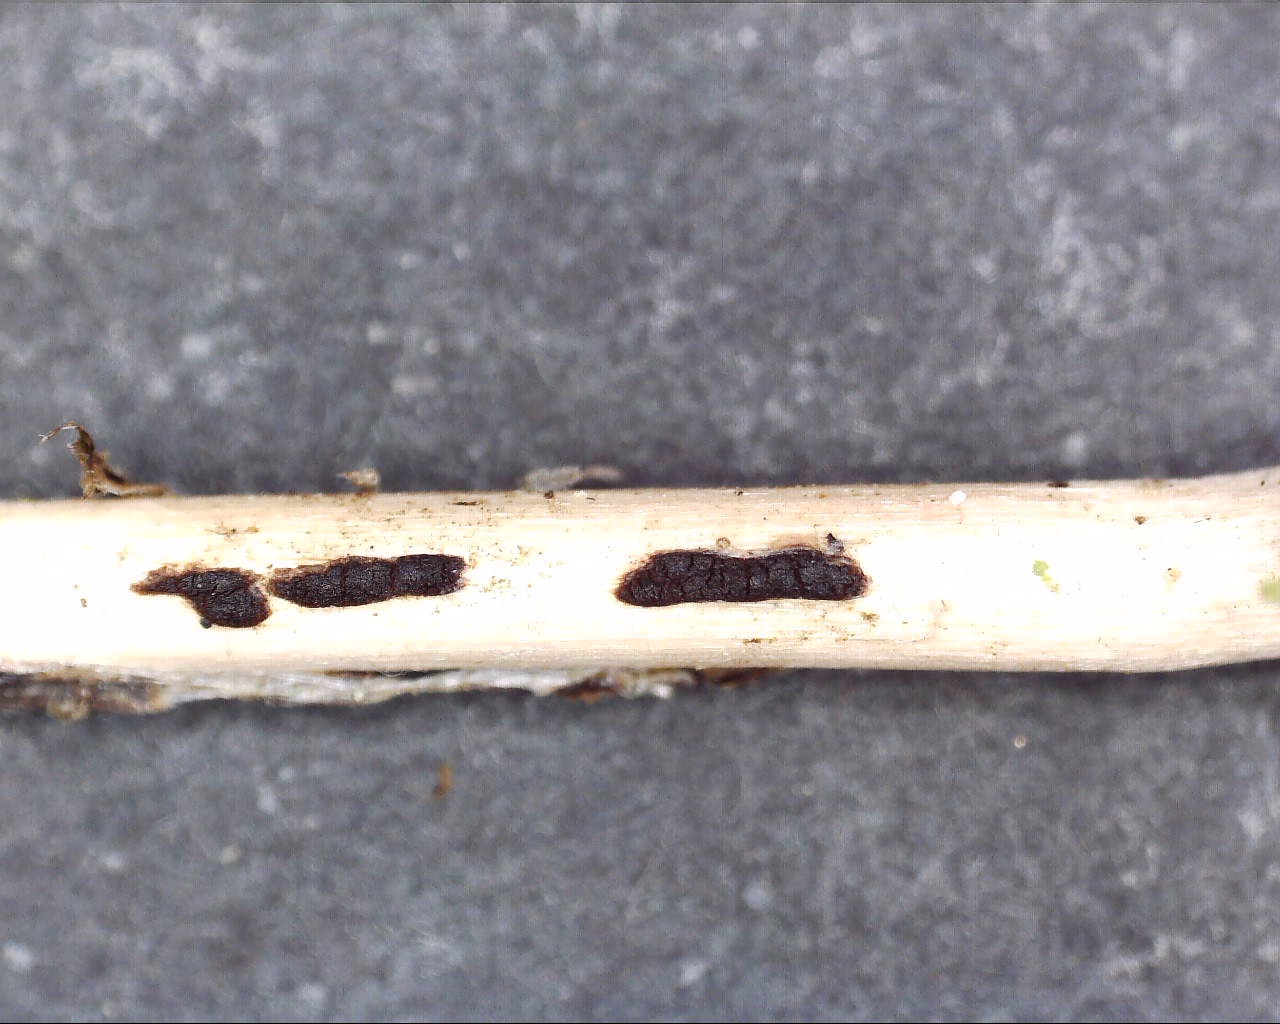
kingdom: Fungi
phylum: Basidiomycota
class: Pucciniomycetes
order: Pucciniales
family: Pucciniaceae
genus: Puccinia
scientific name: Puccinia difformis
